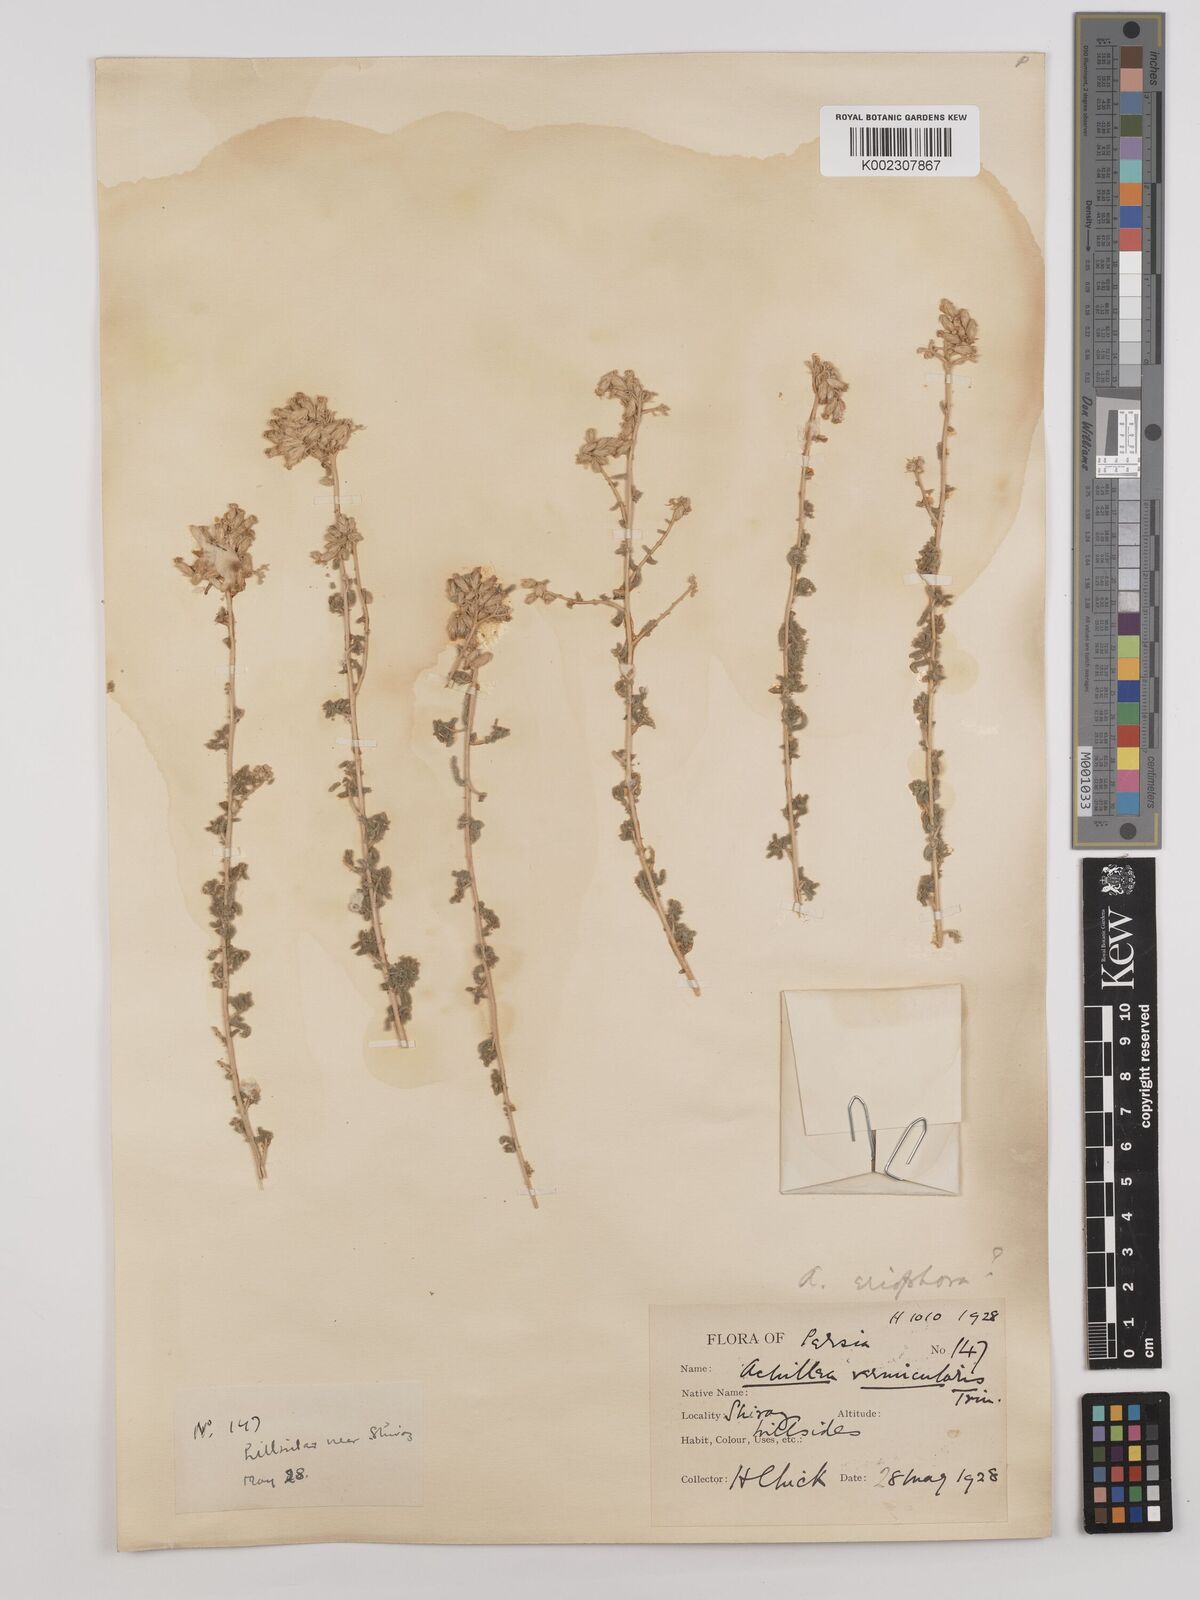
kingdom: Plantae
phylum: Tracheophyta
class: Magnoliopsida
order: Asterales
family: Asteraceae
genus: Achillea
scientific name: Achillea wilhelmsii
